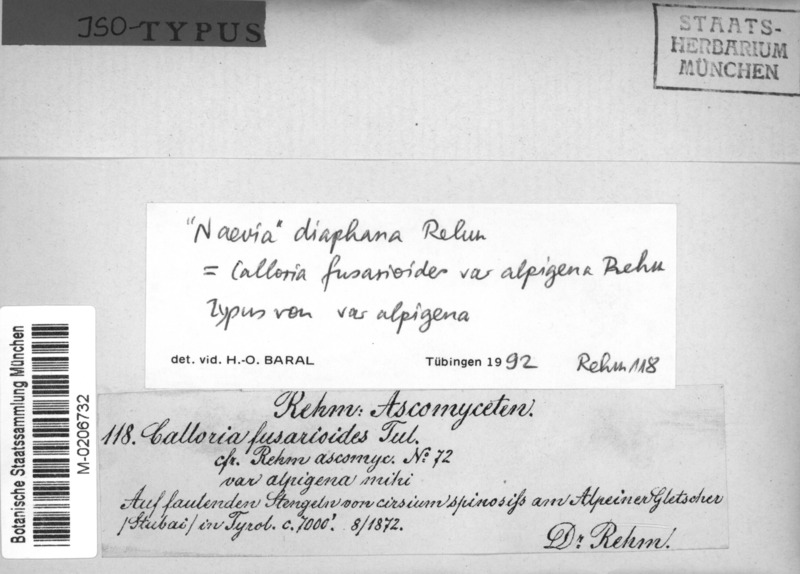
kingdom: Fungi
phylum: Ascomycota
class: Leotiomycetes
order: Helotiales
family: Calloriaceae
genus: Laetinaevia
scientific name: Laetinaevia diaphana
